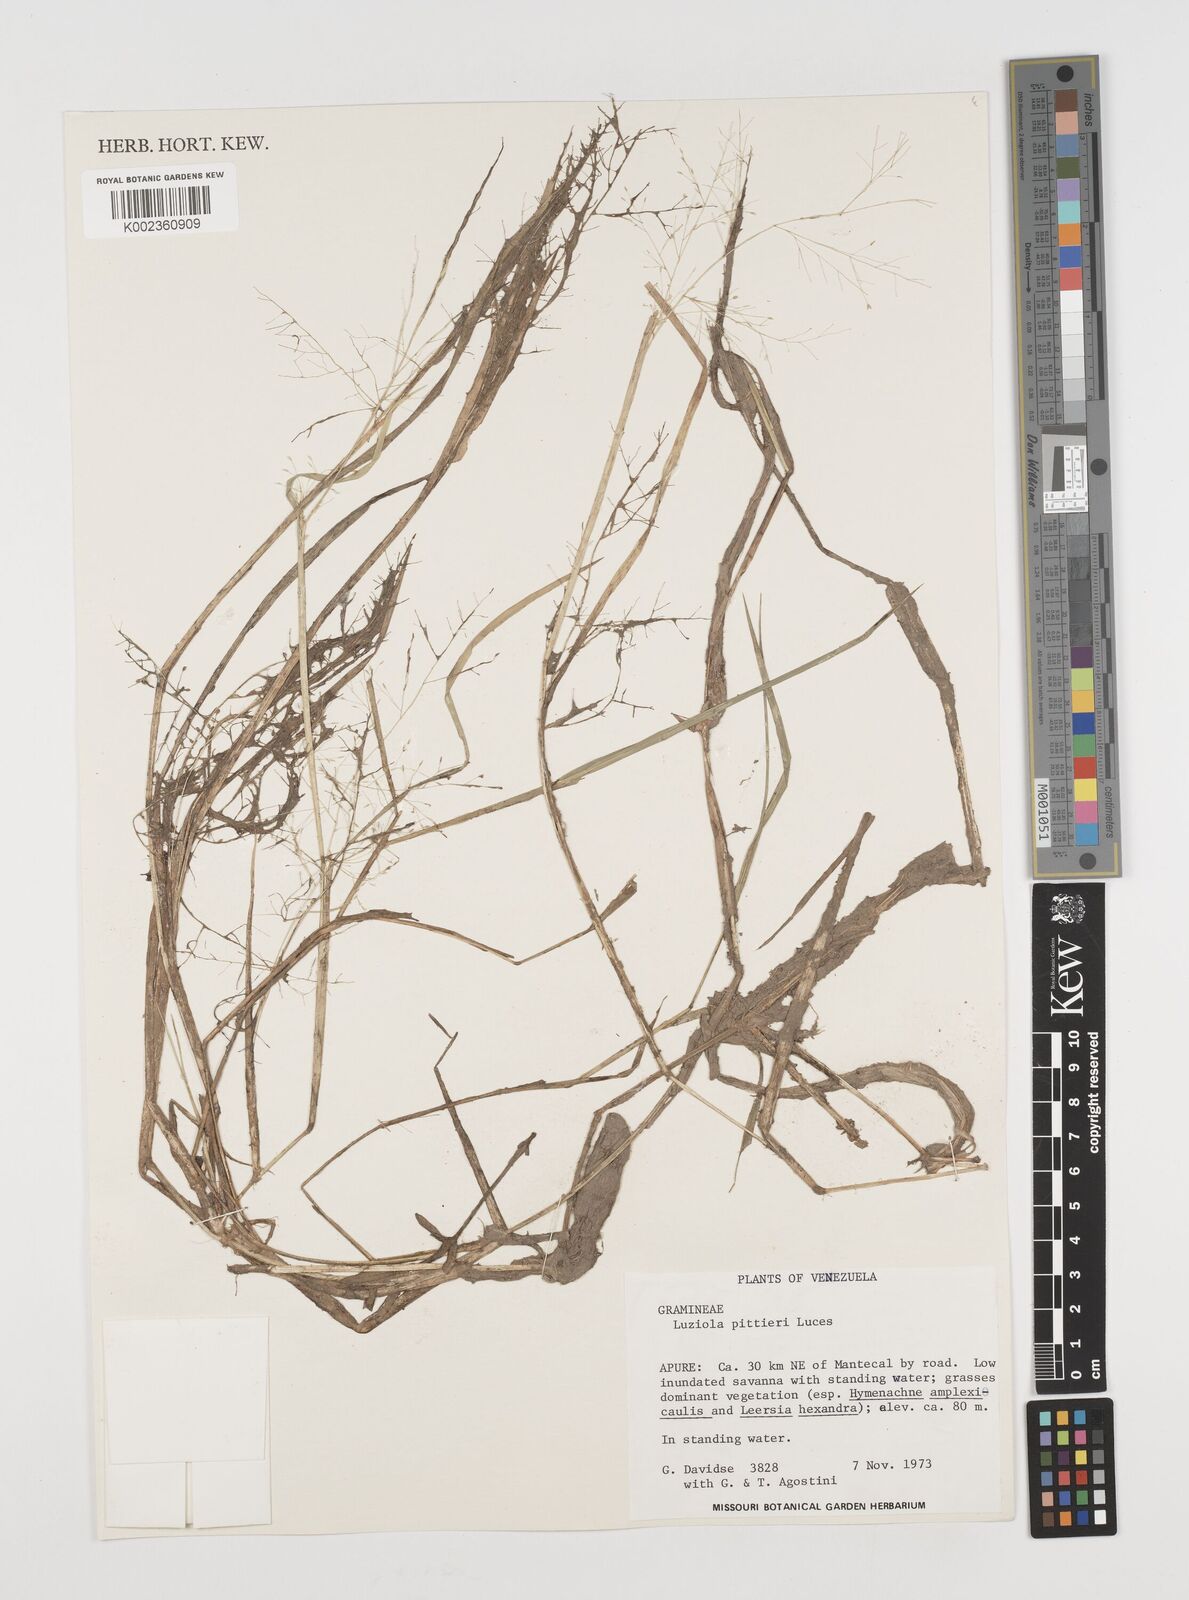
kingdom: Plantae
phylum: Tracheophyta
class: Liliopsida
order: Poales
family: Poaceae
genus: Luziola
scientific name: Luziola brasiliana
